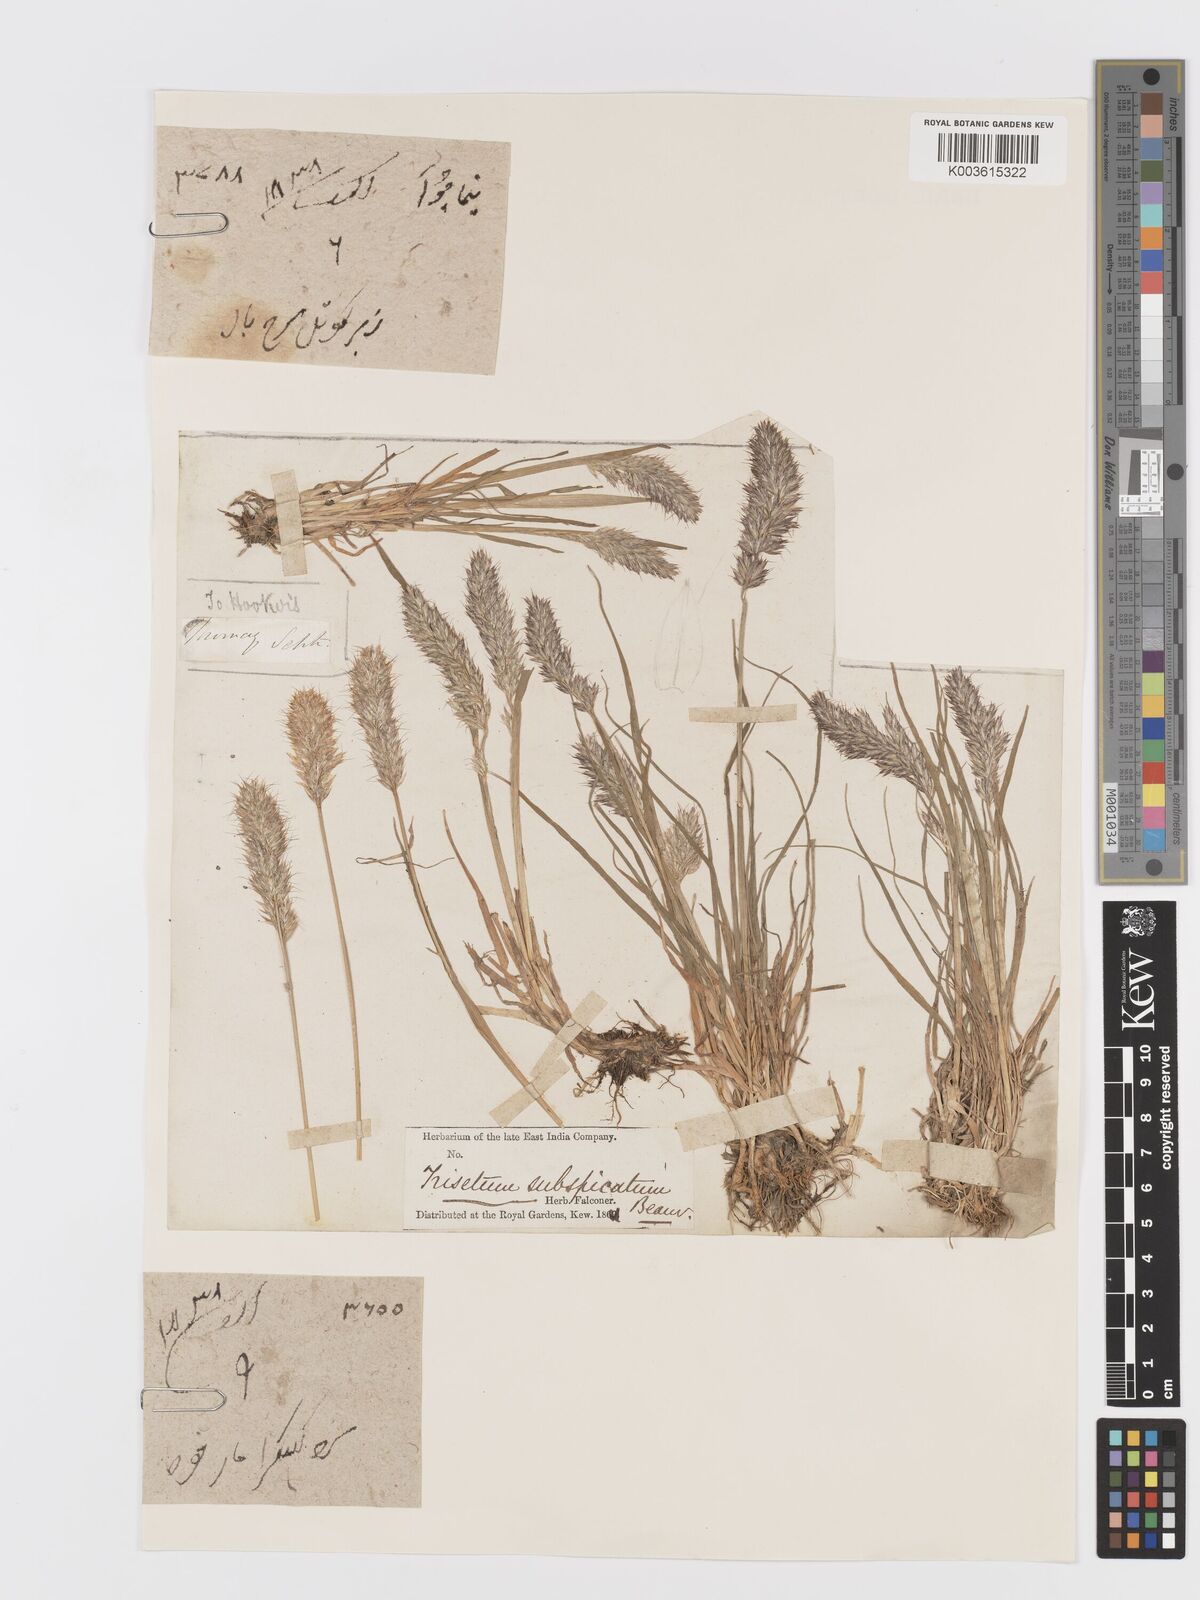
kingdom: Plantae
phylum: Tracheophyta
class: Liliopsida
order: Poales
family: Poaceae
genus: Koeleria
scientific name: Koeleria spicata
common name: Mountain trisetum
